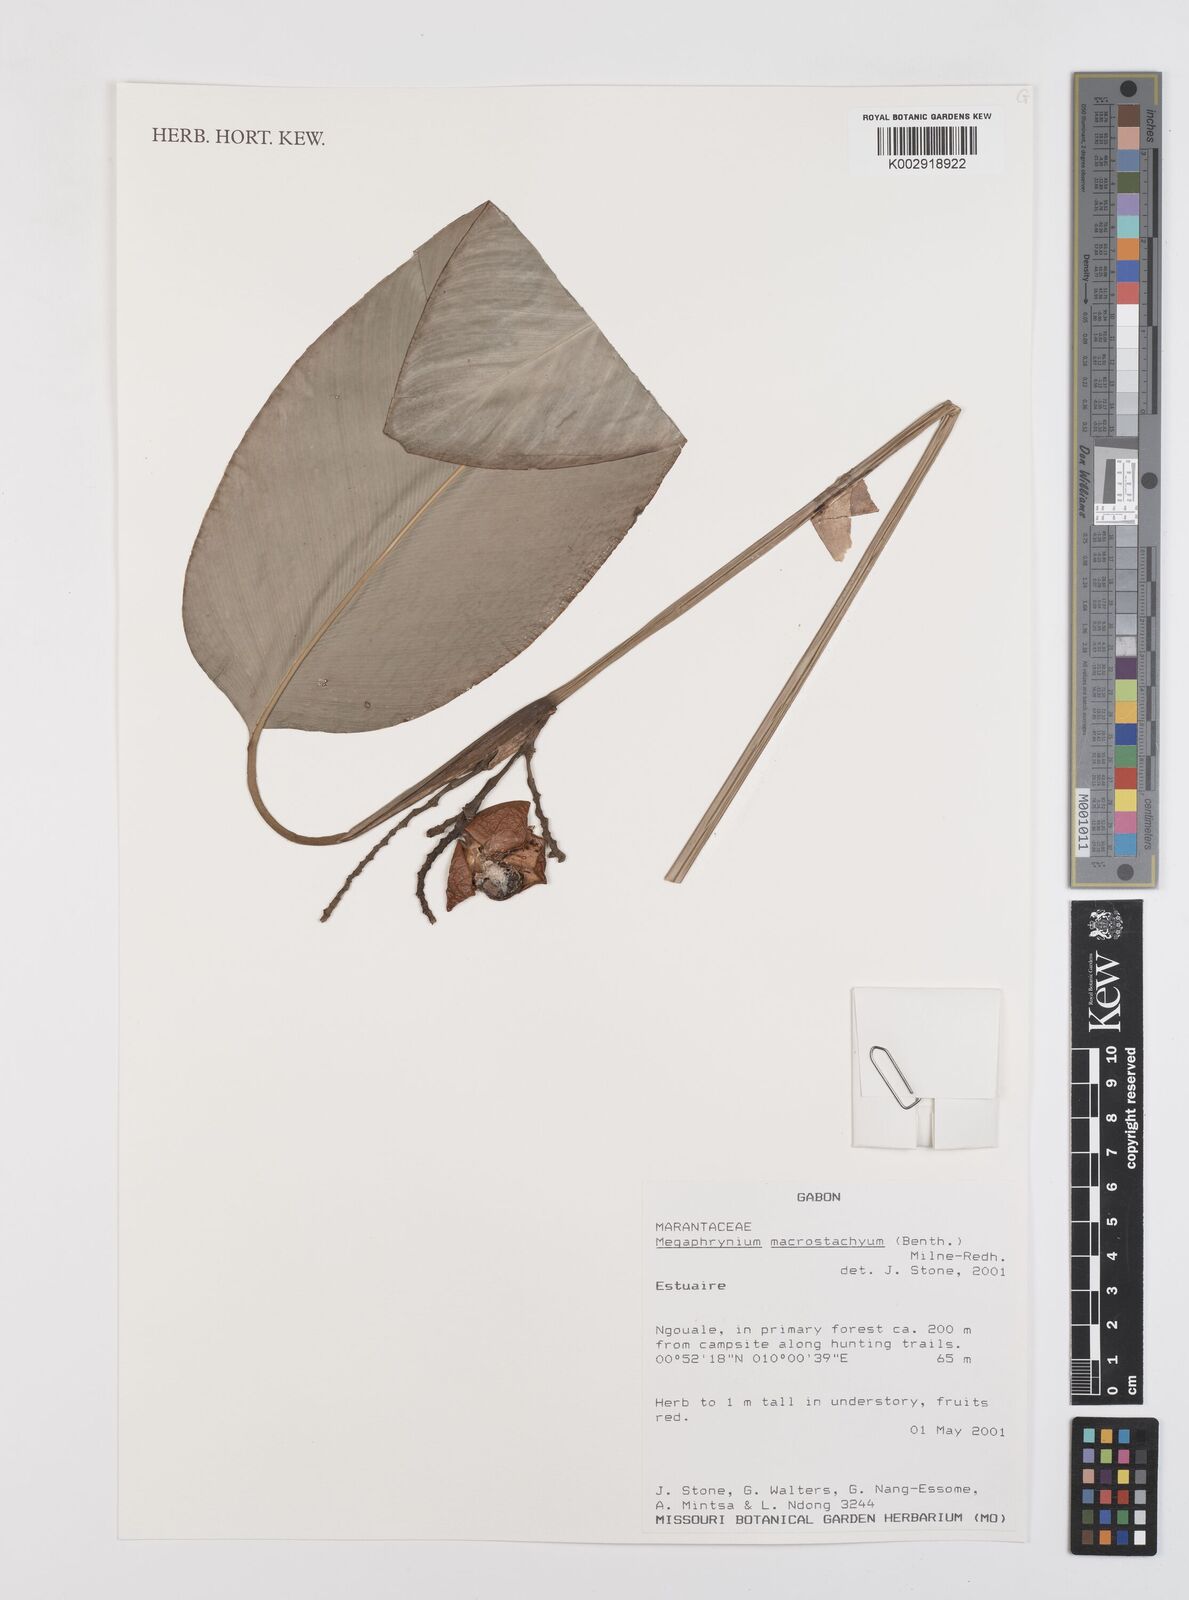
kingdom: Plantae
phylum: Tracheophyta
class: Liliopsida
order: Zingiberales
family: Marantaceae
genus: Megaphrynium
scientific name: Megaphrynium macrostachyum
